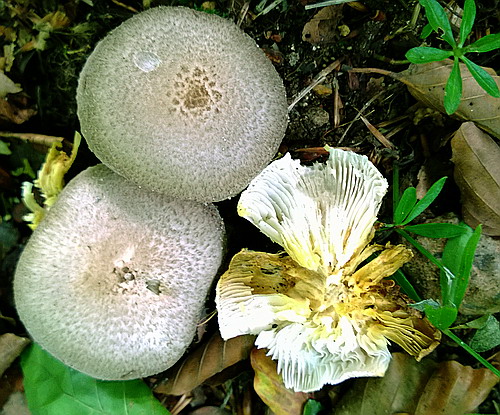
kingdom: Fungi
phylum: Basidiomycota
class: Agaricomycetes
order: Agaricales
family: Tricholomataceae
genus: Tricholoma
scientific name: Tricholoma scalpturatum
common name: gulplettet ridderhat
